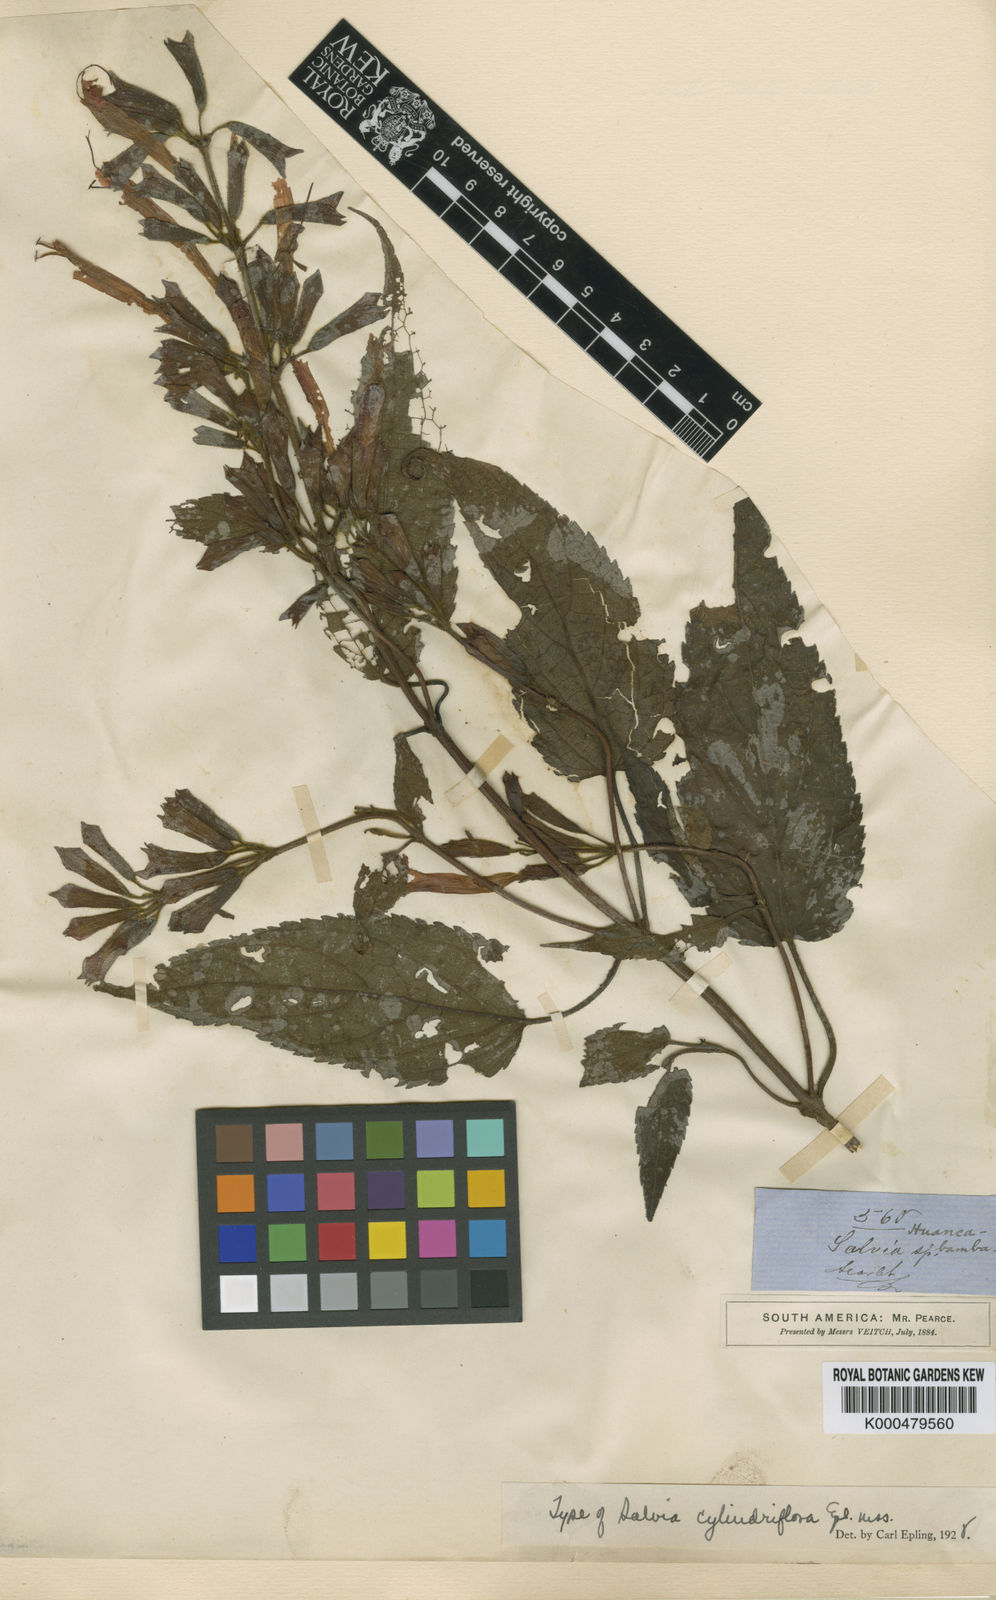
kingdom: Plantae
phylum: Tracheophyta
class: Magnoliopsida
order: Lamiales
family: Lamiaceae
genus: Salvia
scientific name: Salvia cylindriflora
